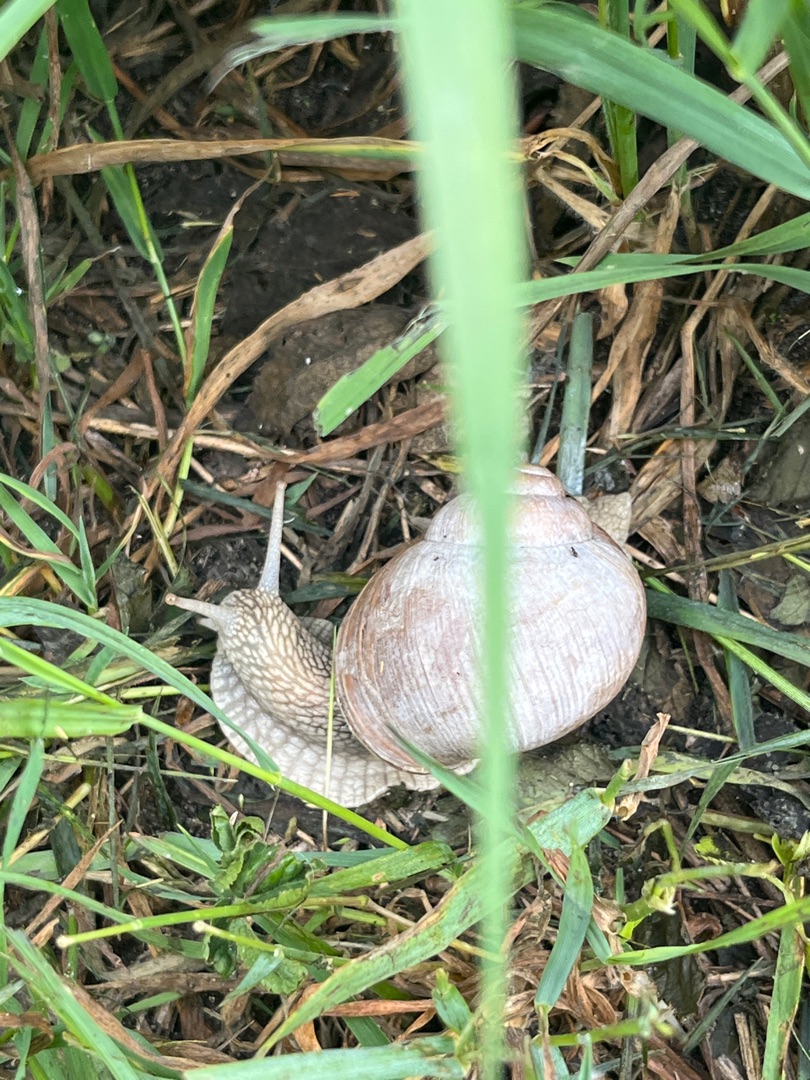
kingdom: Animalia
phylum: Mollusca
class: Gastropoda
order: Stylommatophora
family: Helicidae
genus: Helix
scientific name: Helix pomatia
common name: Vinbjergsnegl
